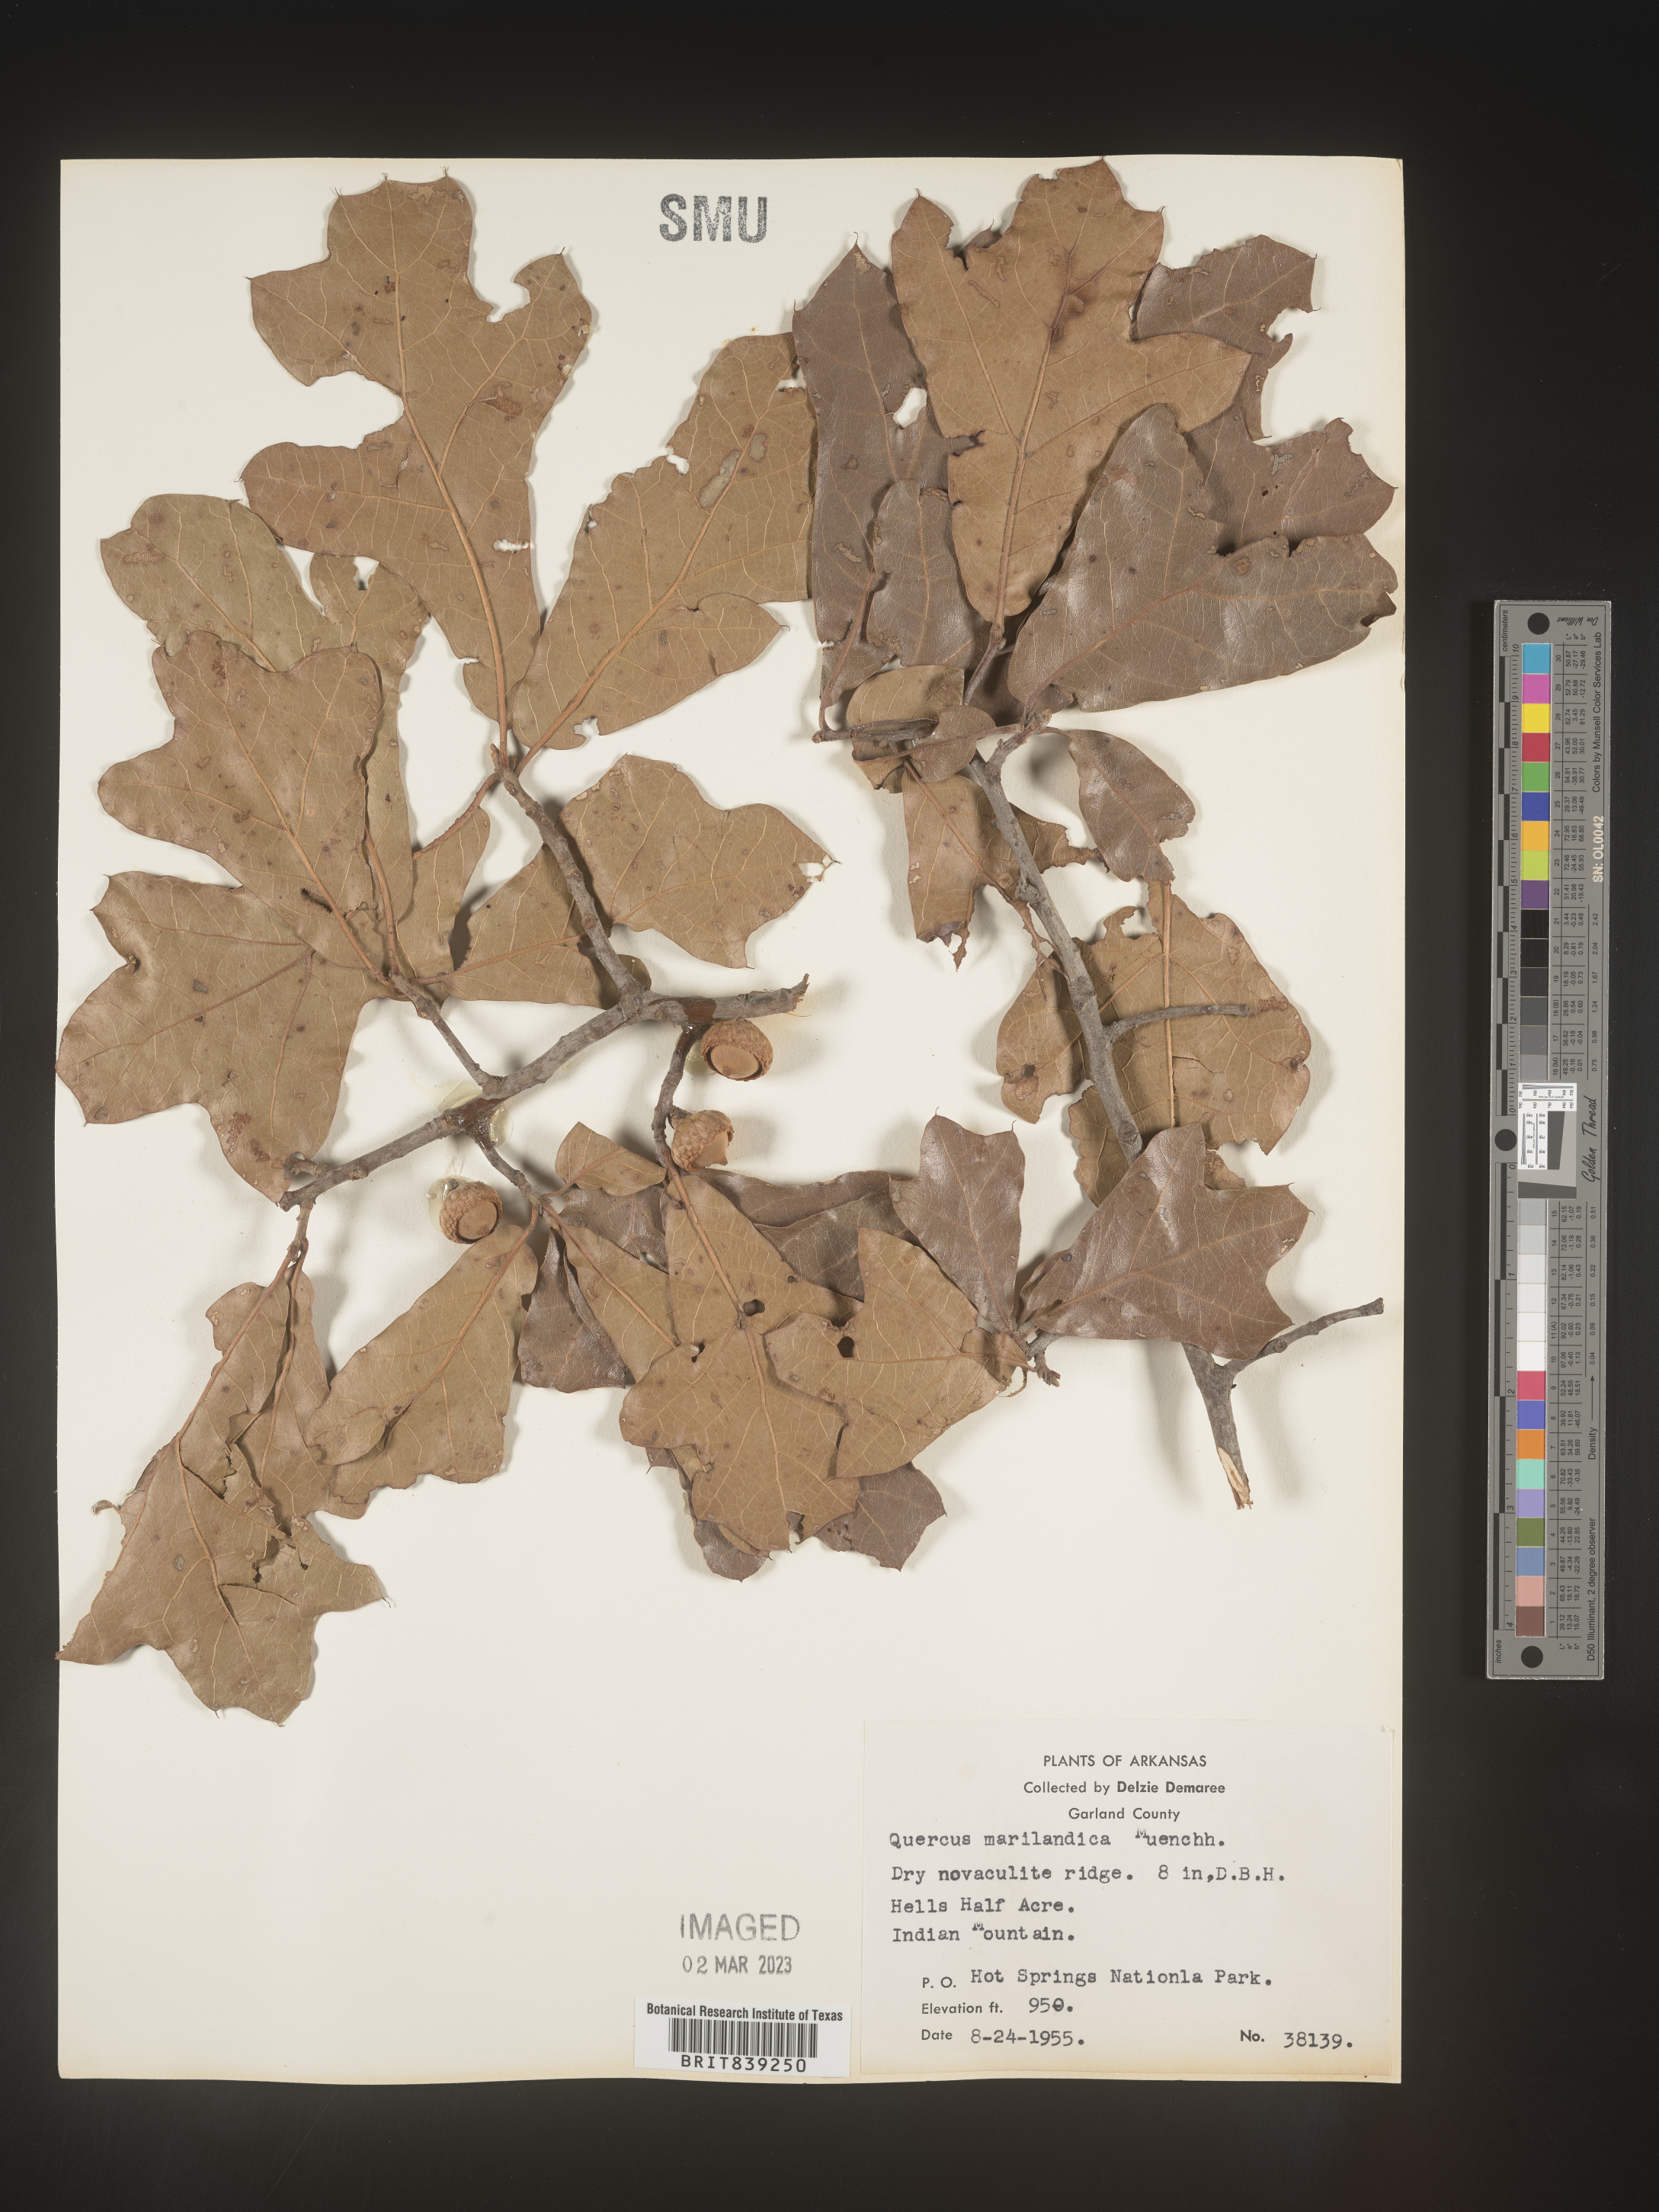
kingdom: Plantae
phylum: Tracheophyta
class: Magnoliopsida
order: Fagales
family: Fagaceae
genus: Quercus
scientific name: Quercus marilandica
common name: Blackjack oak
